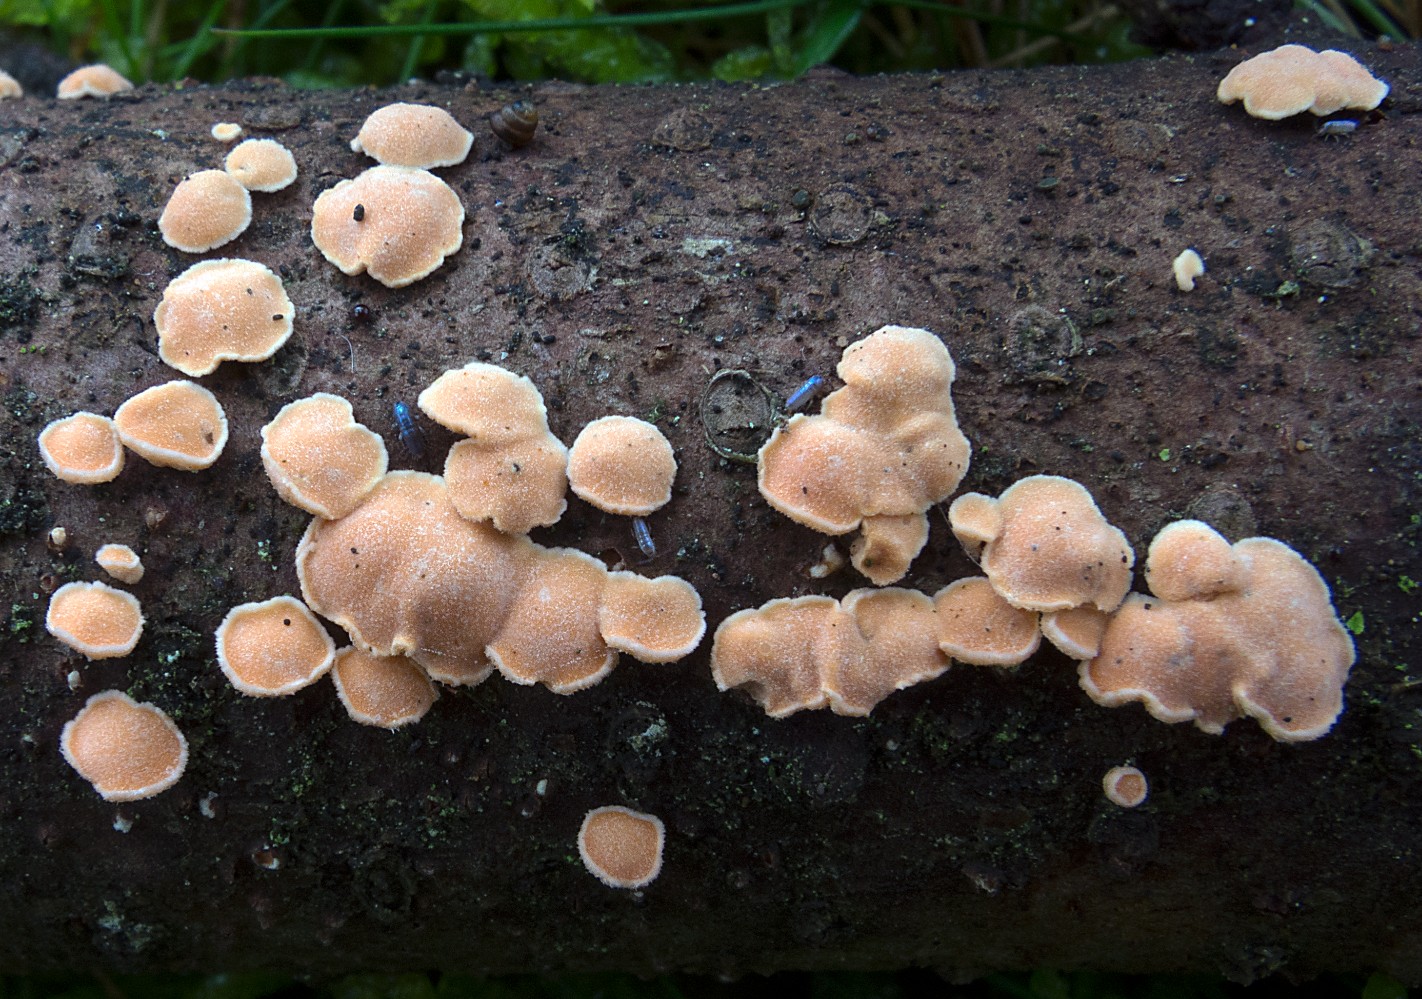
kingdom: Fungi
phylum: Basidiomycota
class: Agaricomycetes
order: Russulales
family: Stereaceae
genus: Aleurodiscus
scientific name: Aleurodiscus amorphus
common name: orange skiveskorpe
